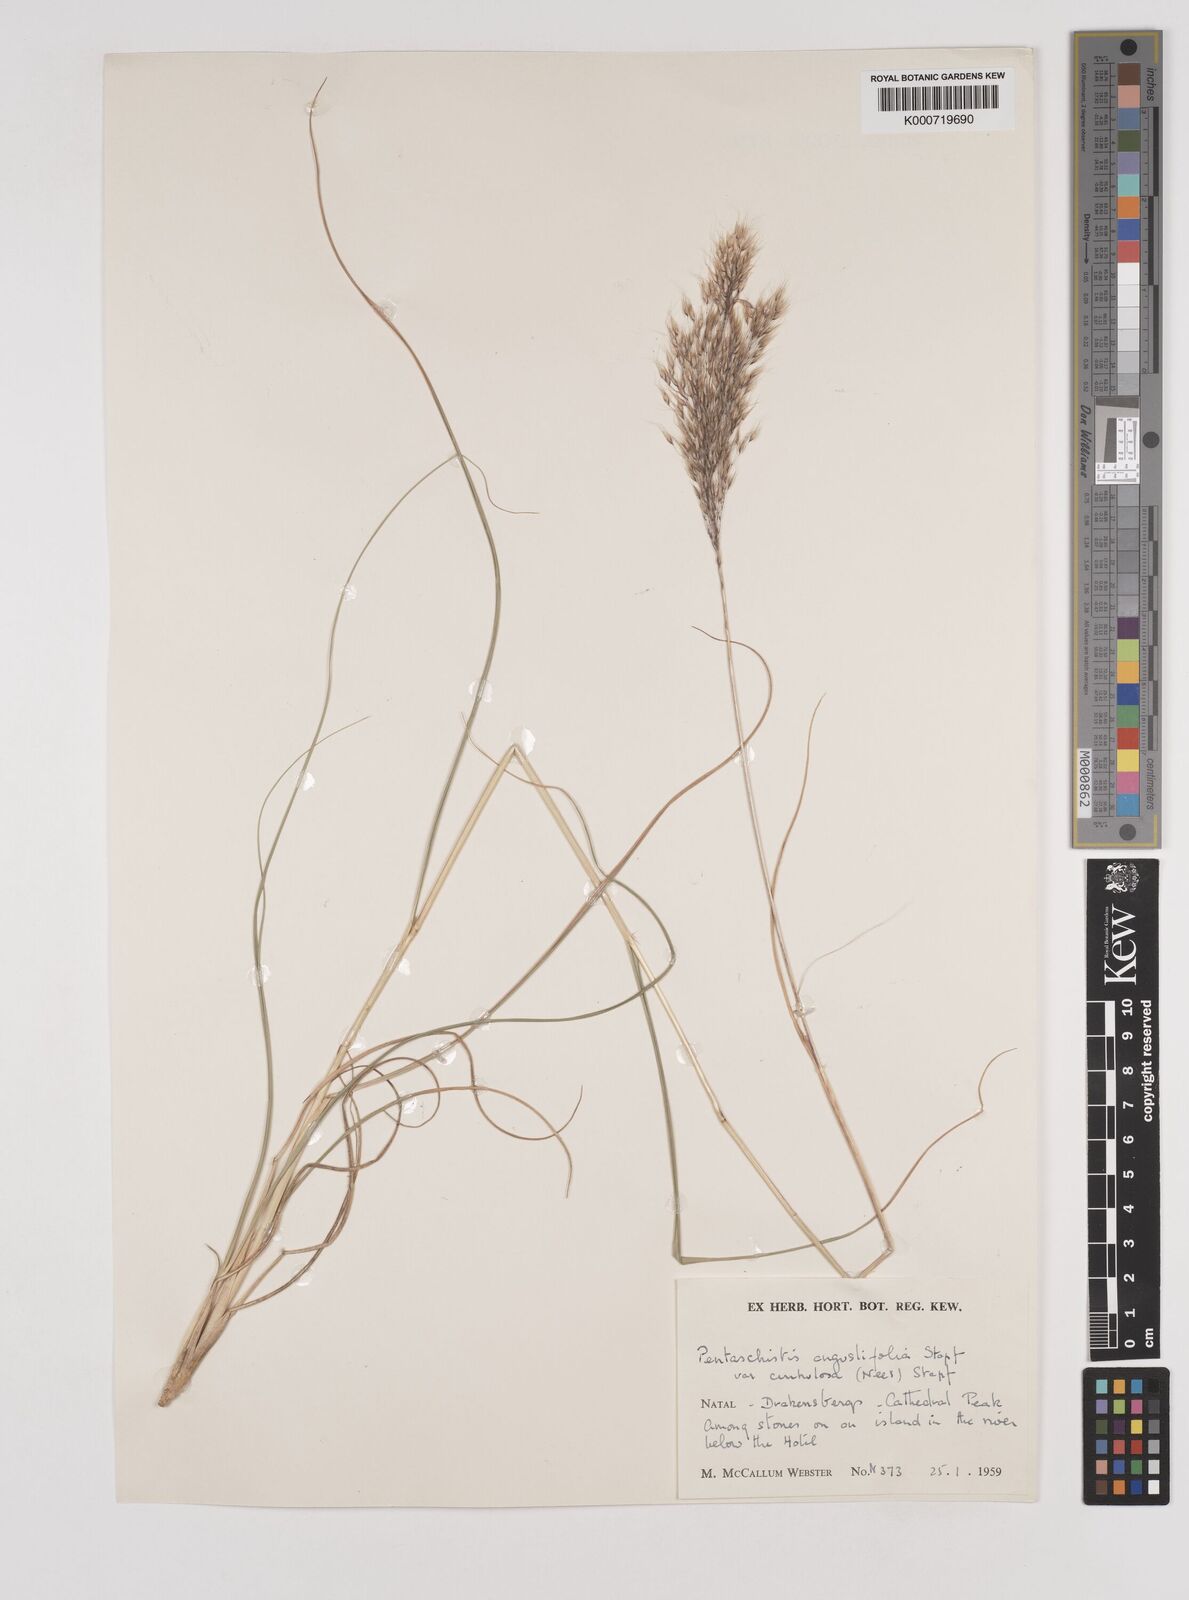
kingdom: Plantae
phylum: Tracheophyta
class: Liliopsida
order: Poales
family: Poaceae
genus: Pentameris
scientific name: Pentameris tysonii
